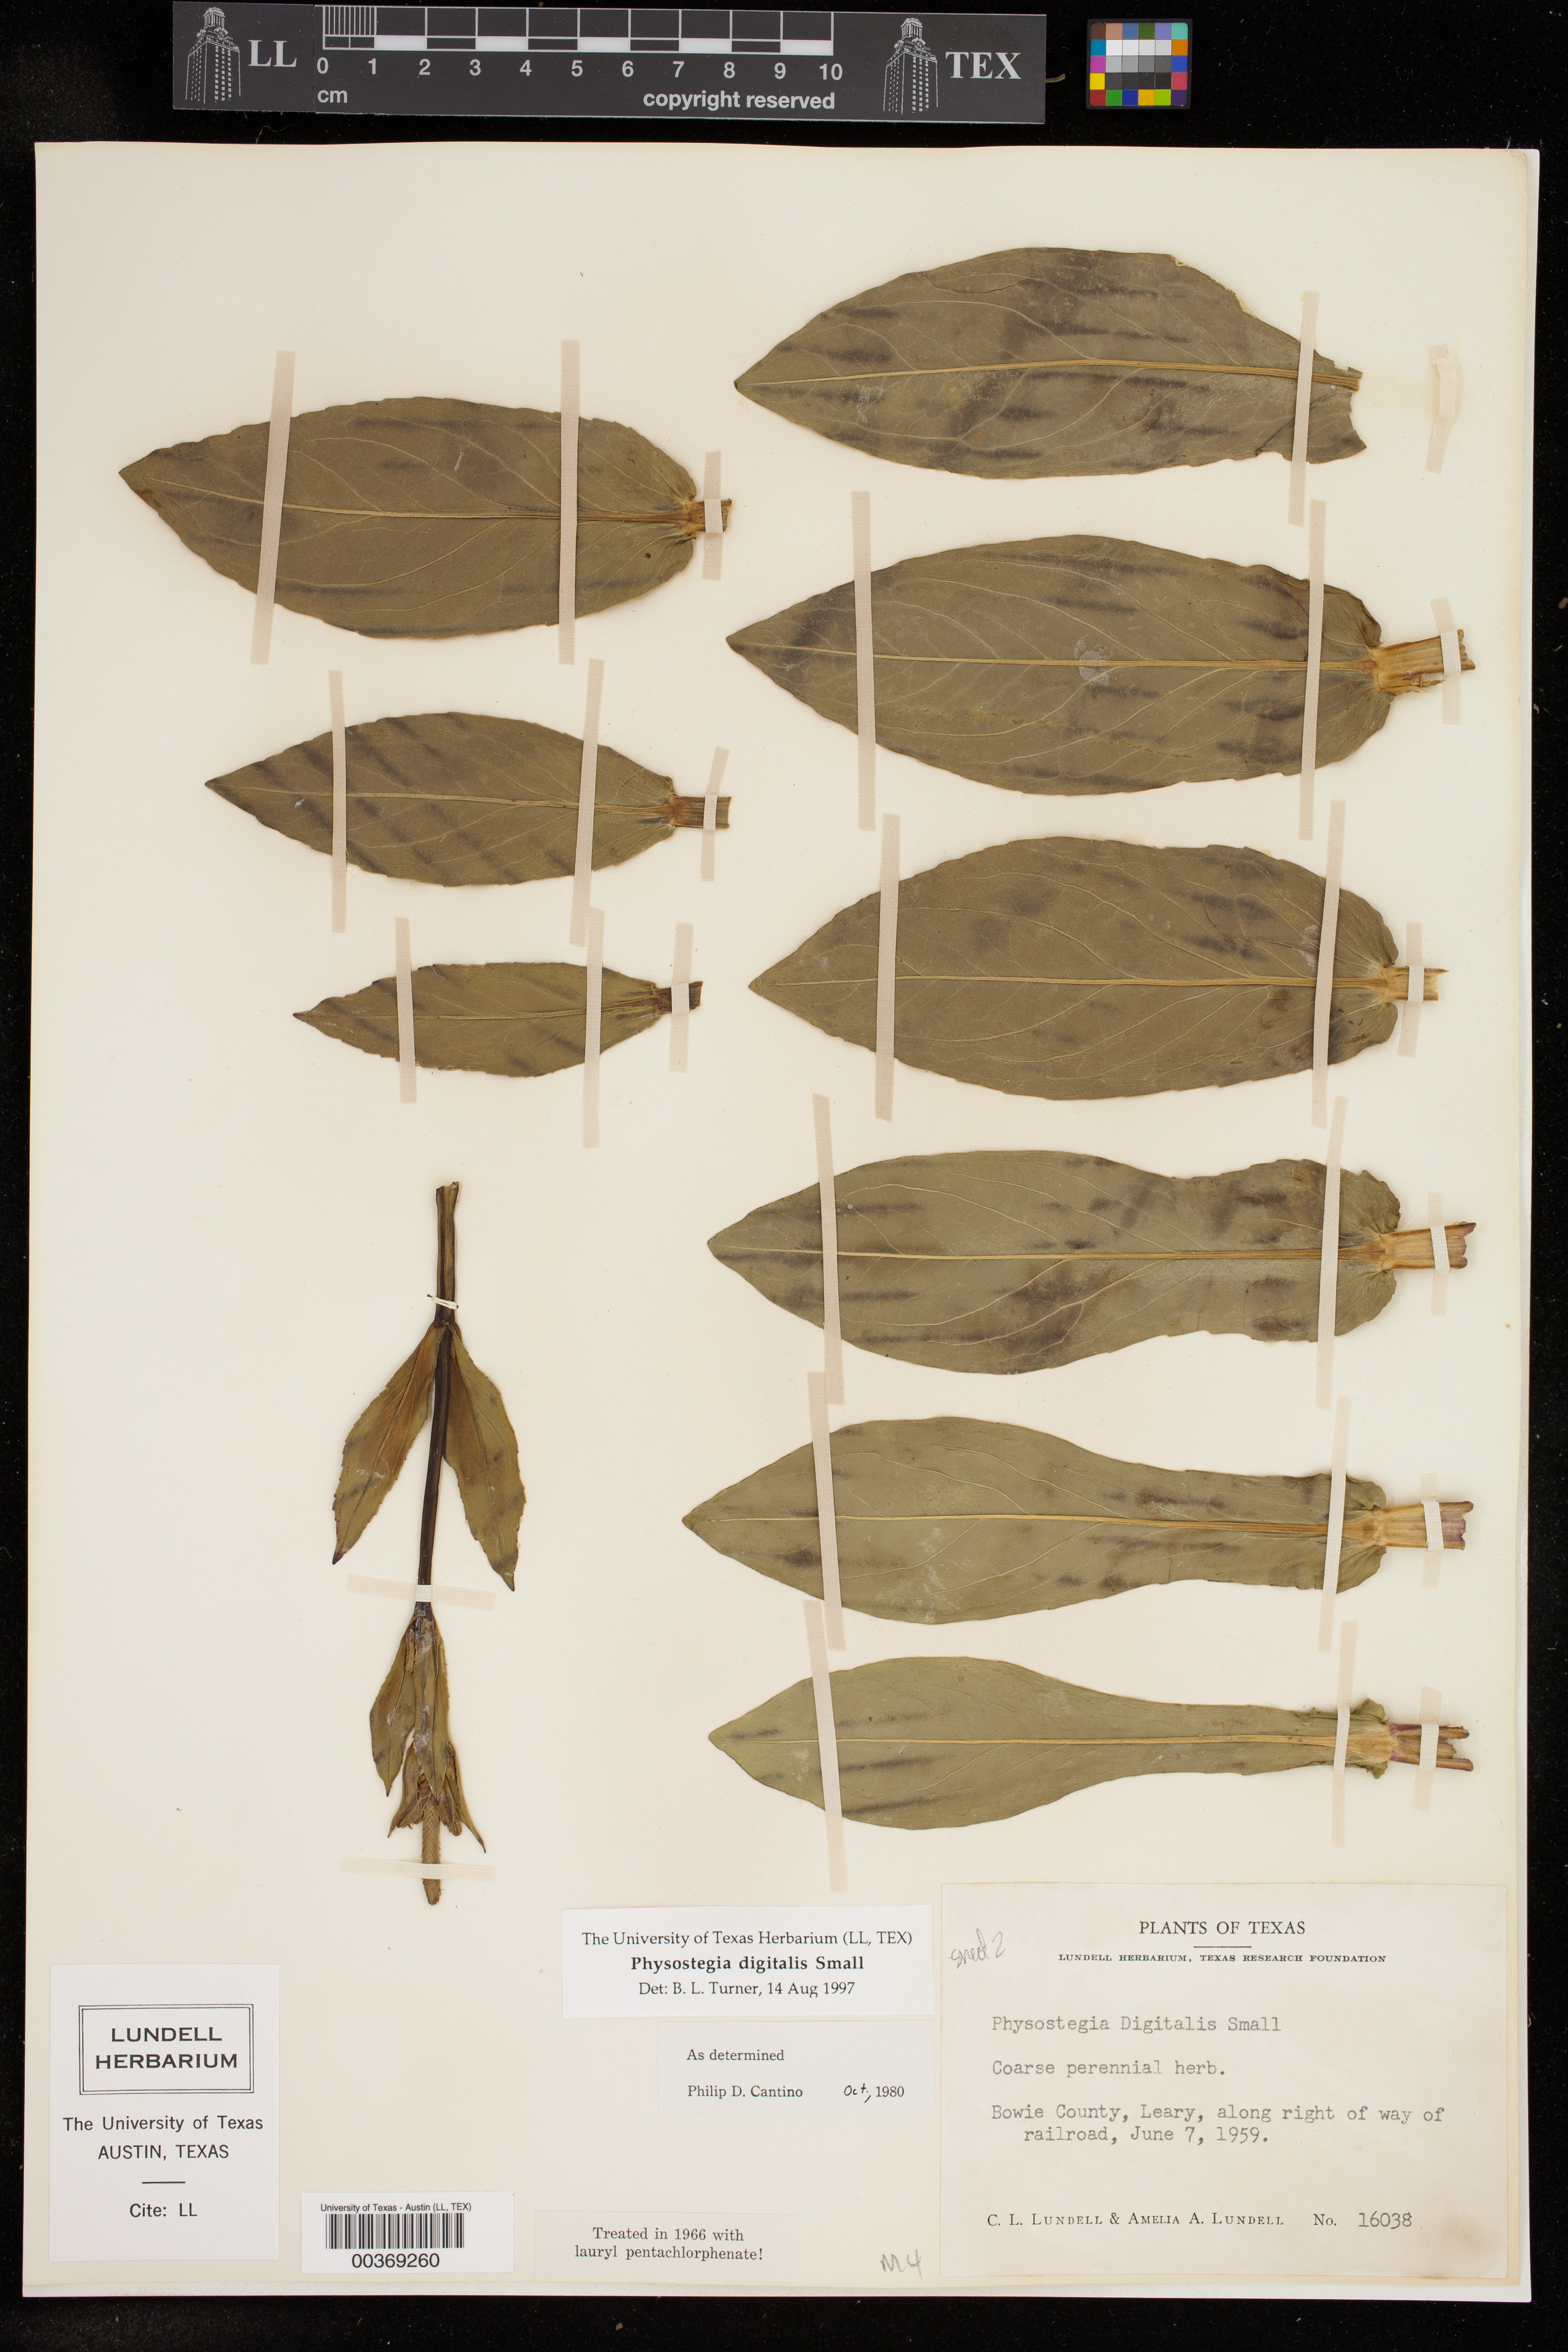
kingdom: Plantae
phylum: Tracheophyta
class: Magnoliopsida
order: Lamiales
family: Lamiaceae
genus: Physostegia
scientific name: Physostegia digitalis
